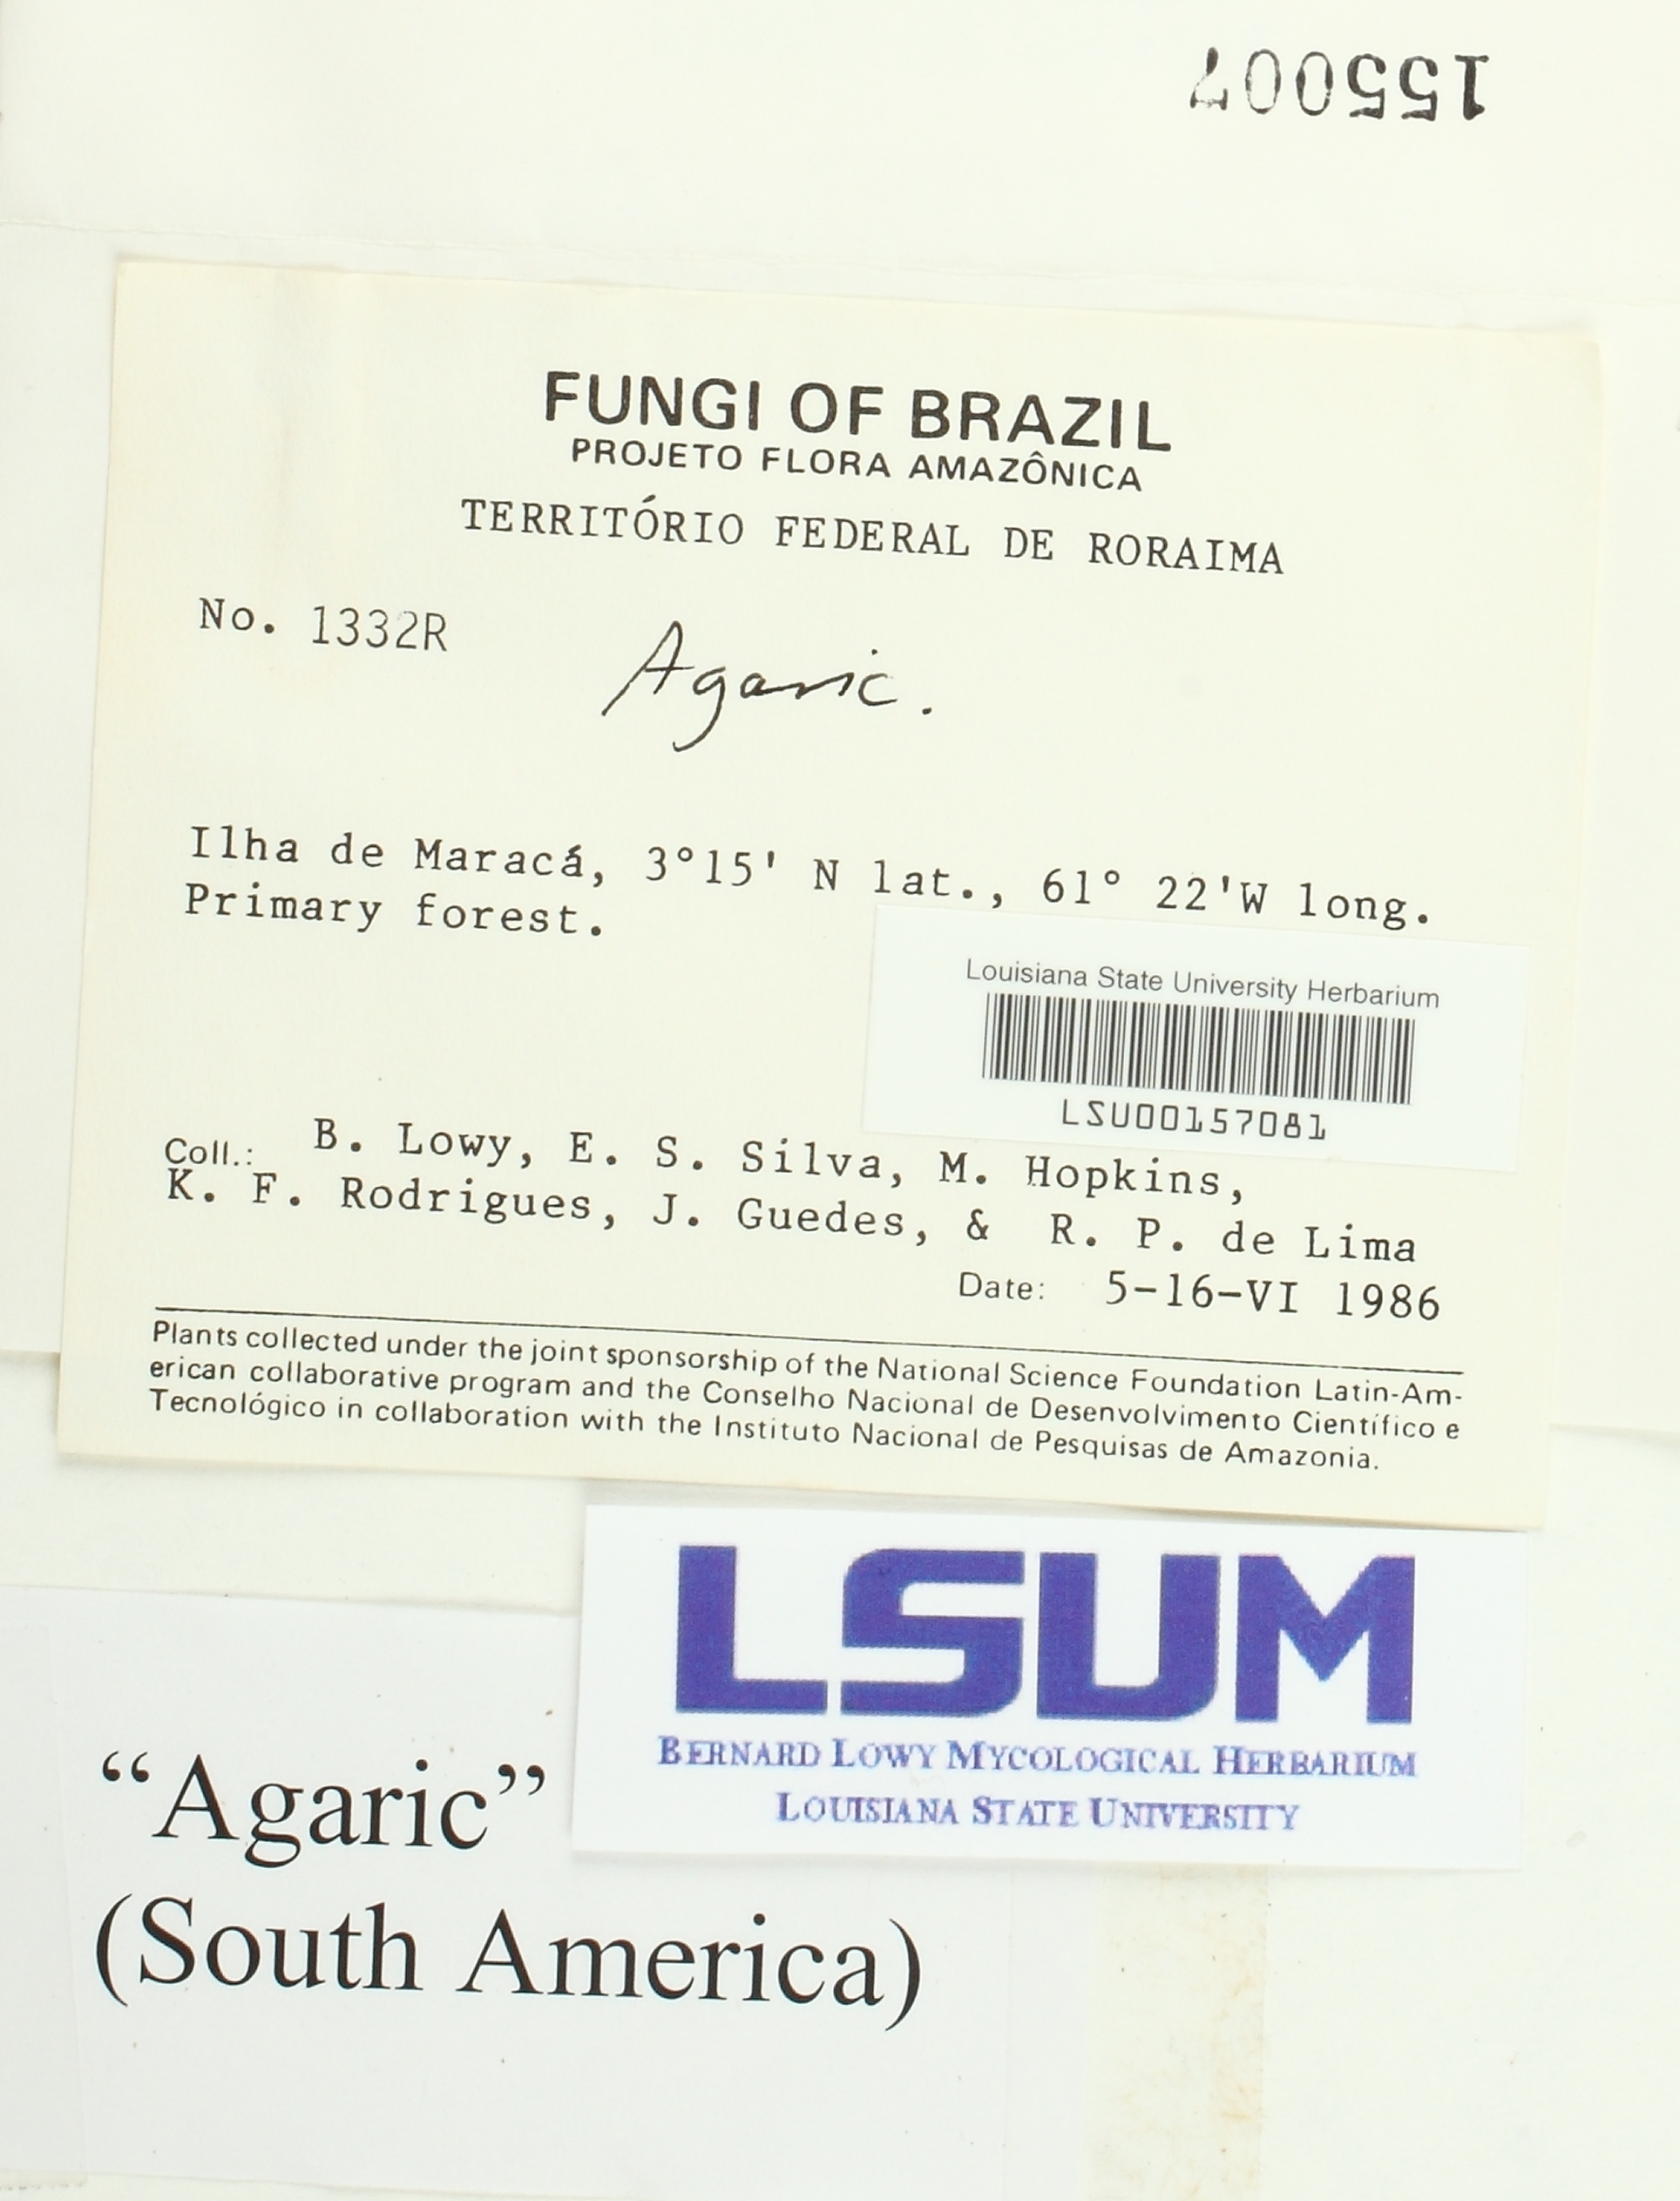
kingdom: Fungi
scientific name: Fungi
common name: Fungi
